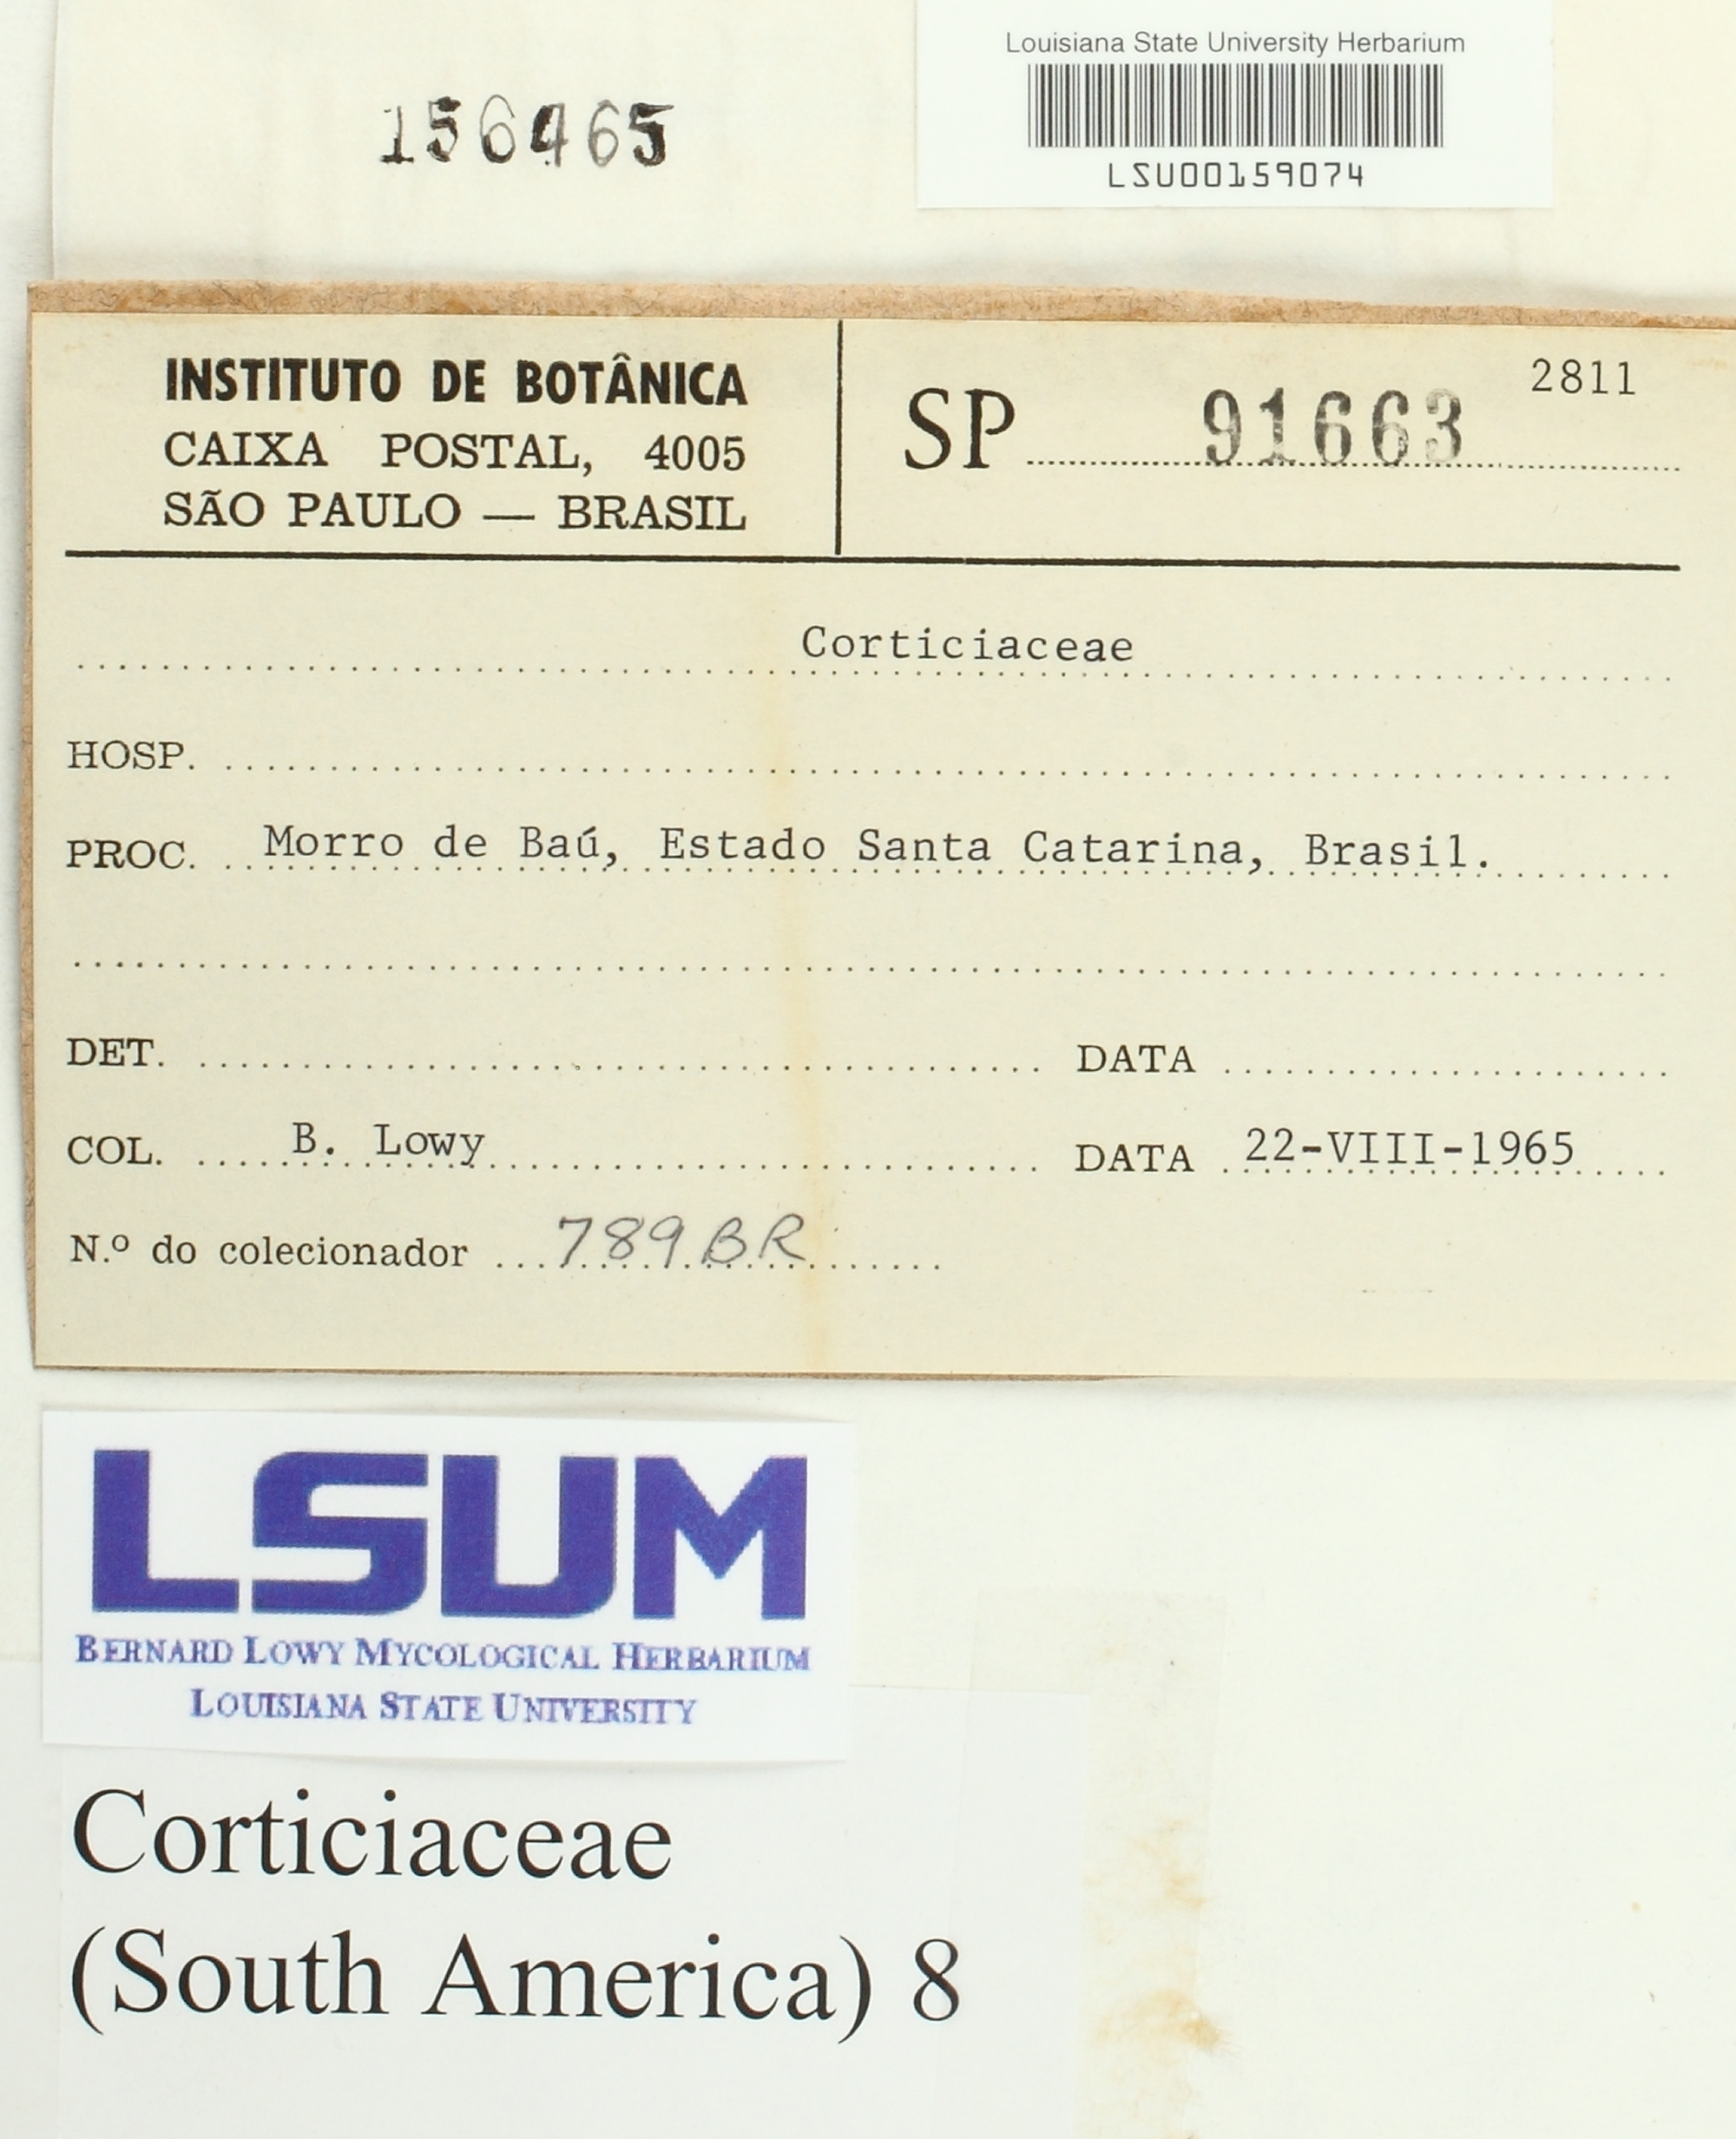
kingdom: Fungi
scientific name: Fungi
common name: Fungi
